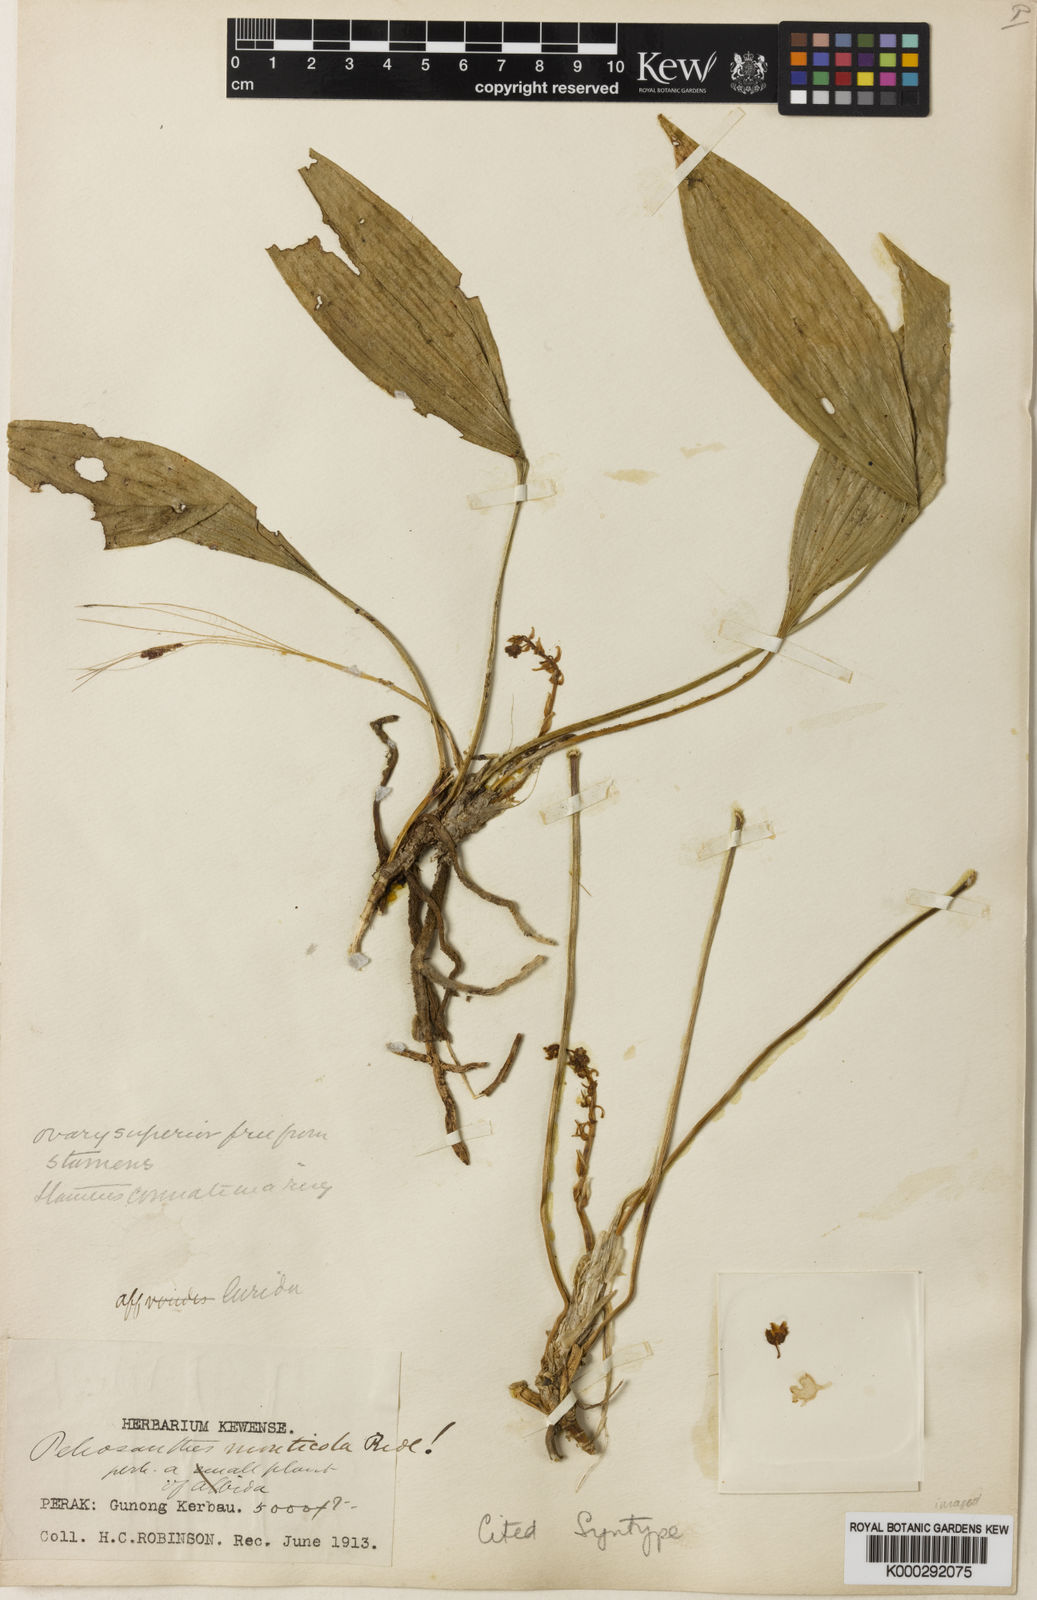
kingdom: Plantae
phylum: Tracheophyta
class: Liliopsida
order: Asparagales
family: Asparagaceae
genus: Peliosanthes
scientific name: Peliosanthes teta
